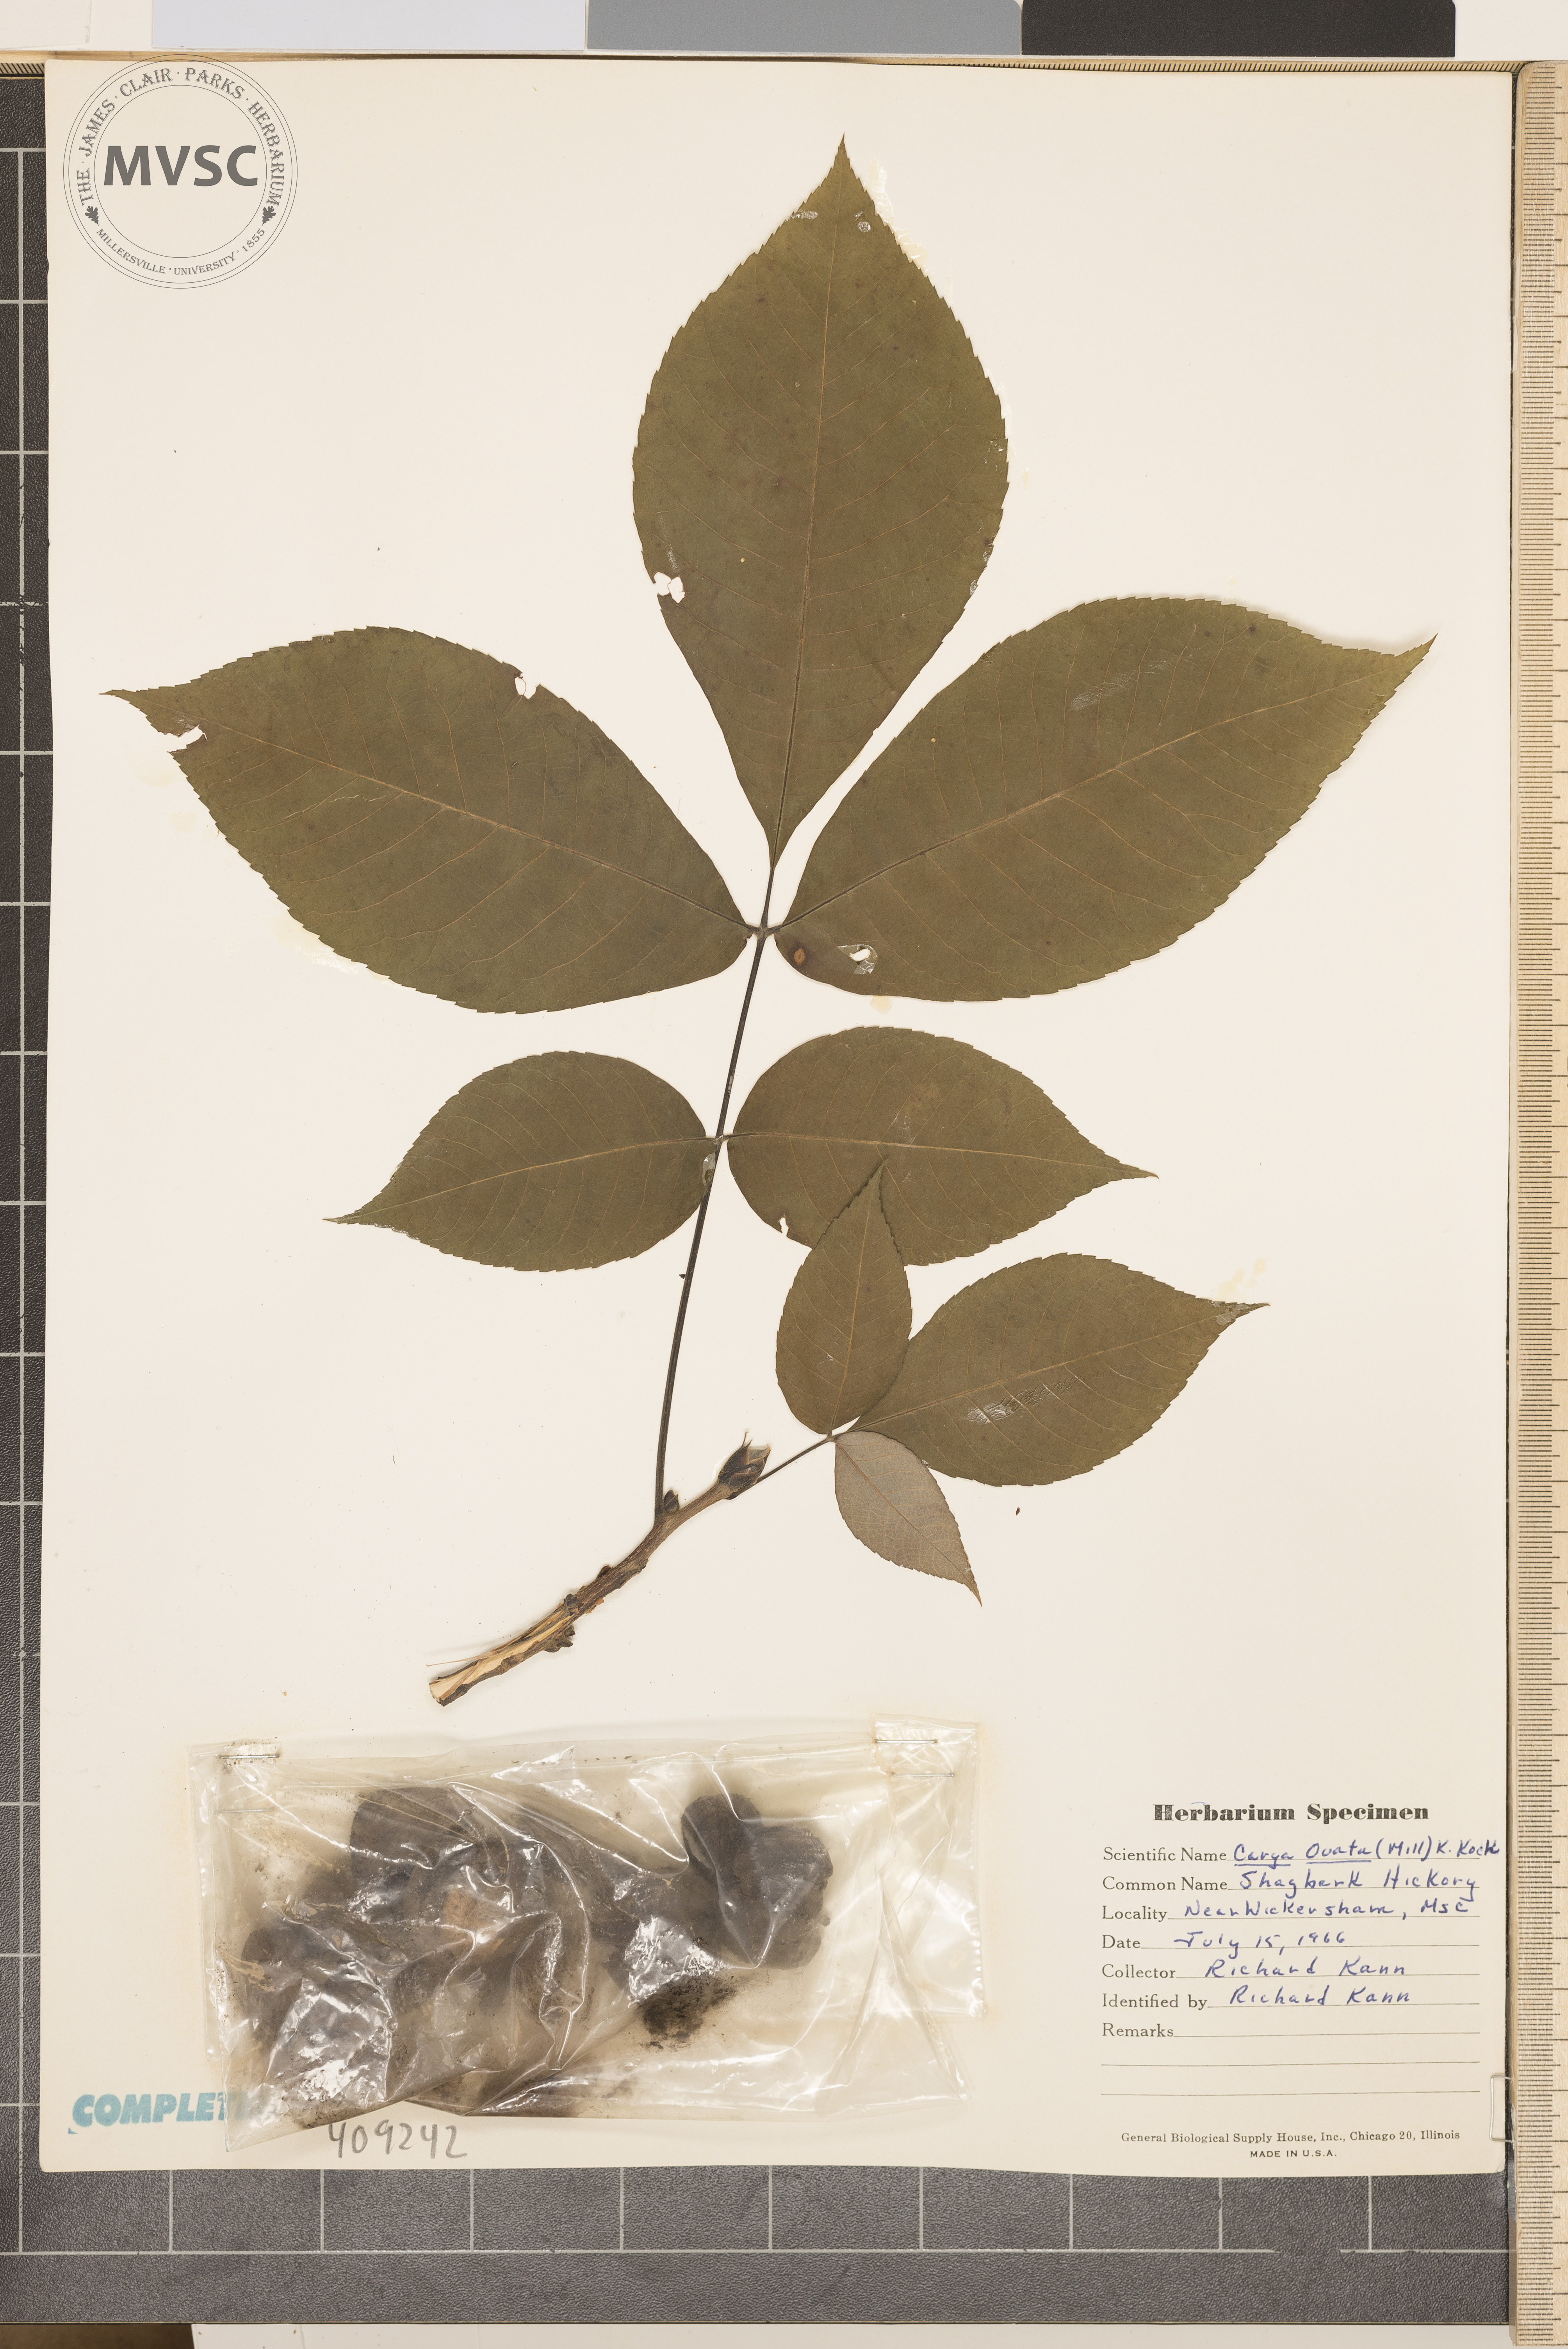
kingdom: Plantae
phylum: Tracheophyta
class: Magnoliopsida
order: Fagales
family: Juglandaceae
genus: Carya
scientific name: Carya ovata
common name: Shagbark hickory
